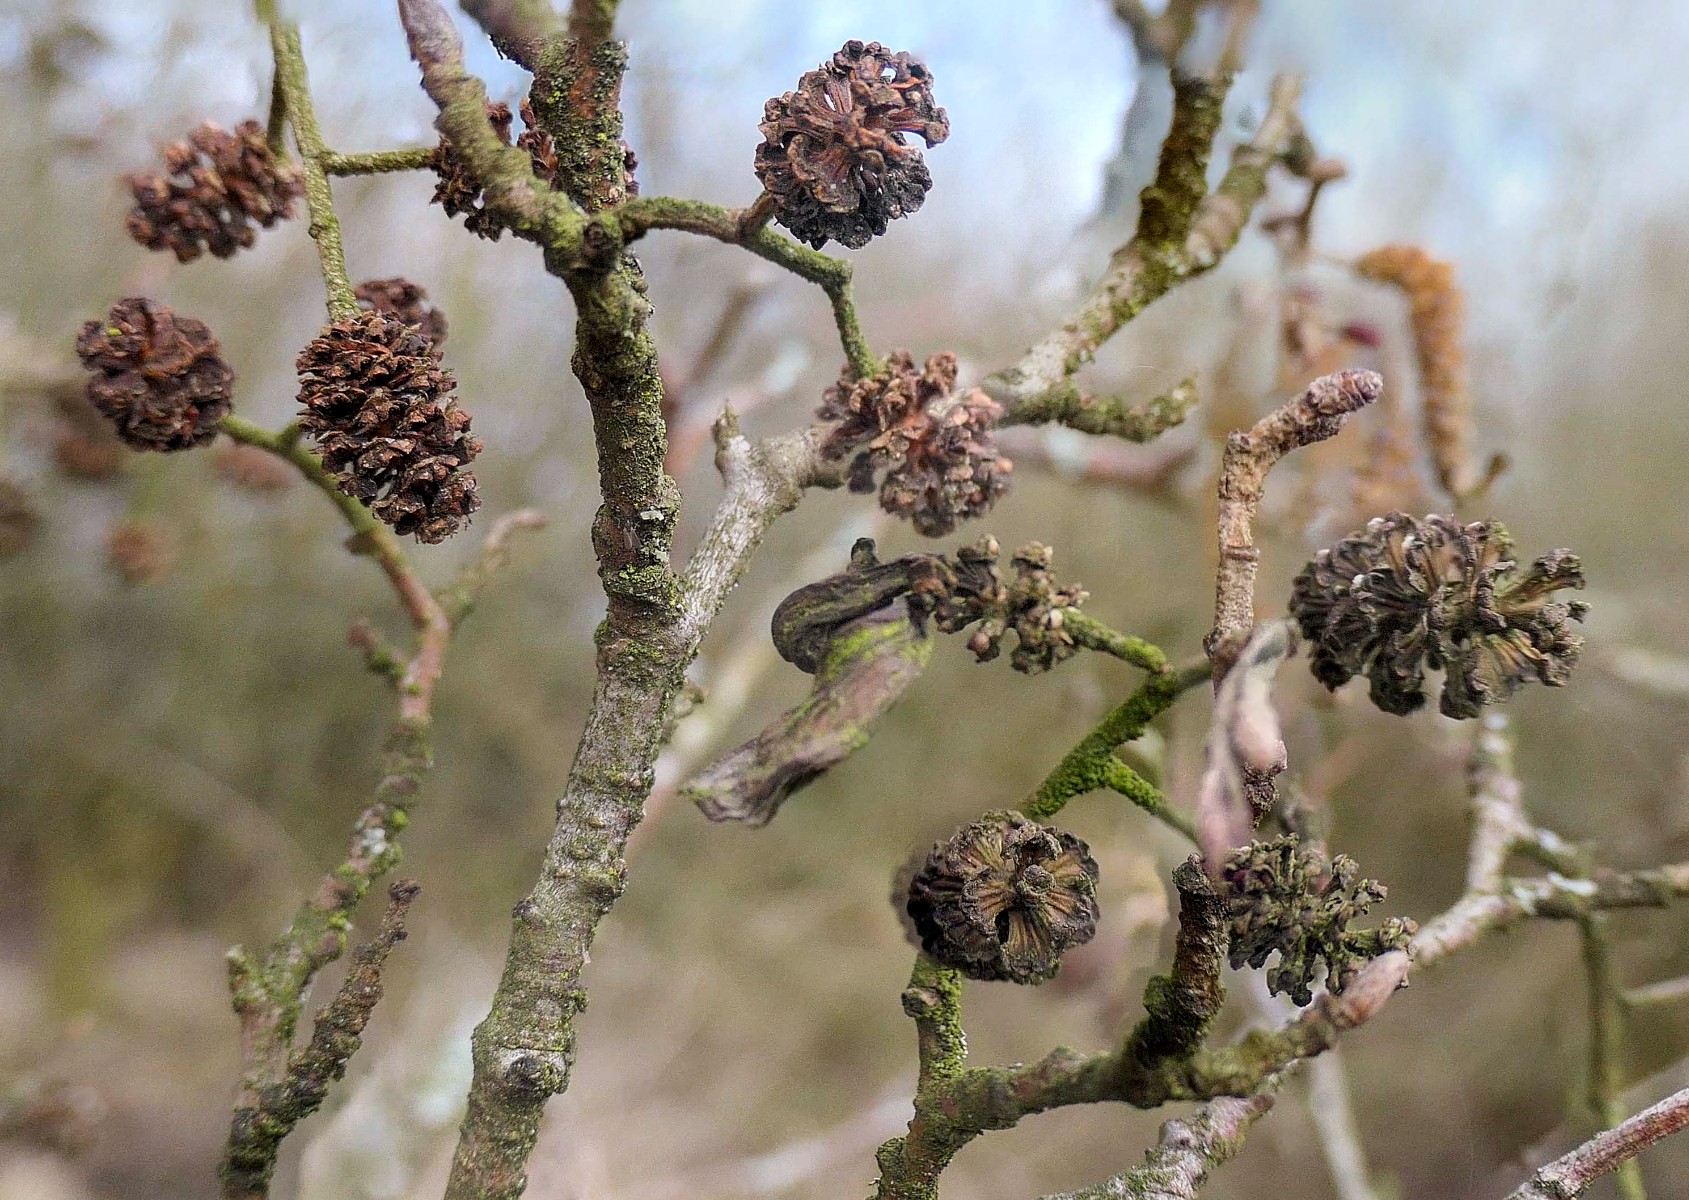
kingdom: Fungi
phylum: Ascomycota
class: Taphrinomycetes
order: Taphrinales
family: Taphrinaceae
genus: Taphrina
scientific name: Taphrina alni
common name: Alder tongue
